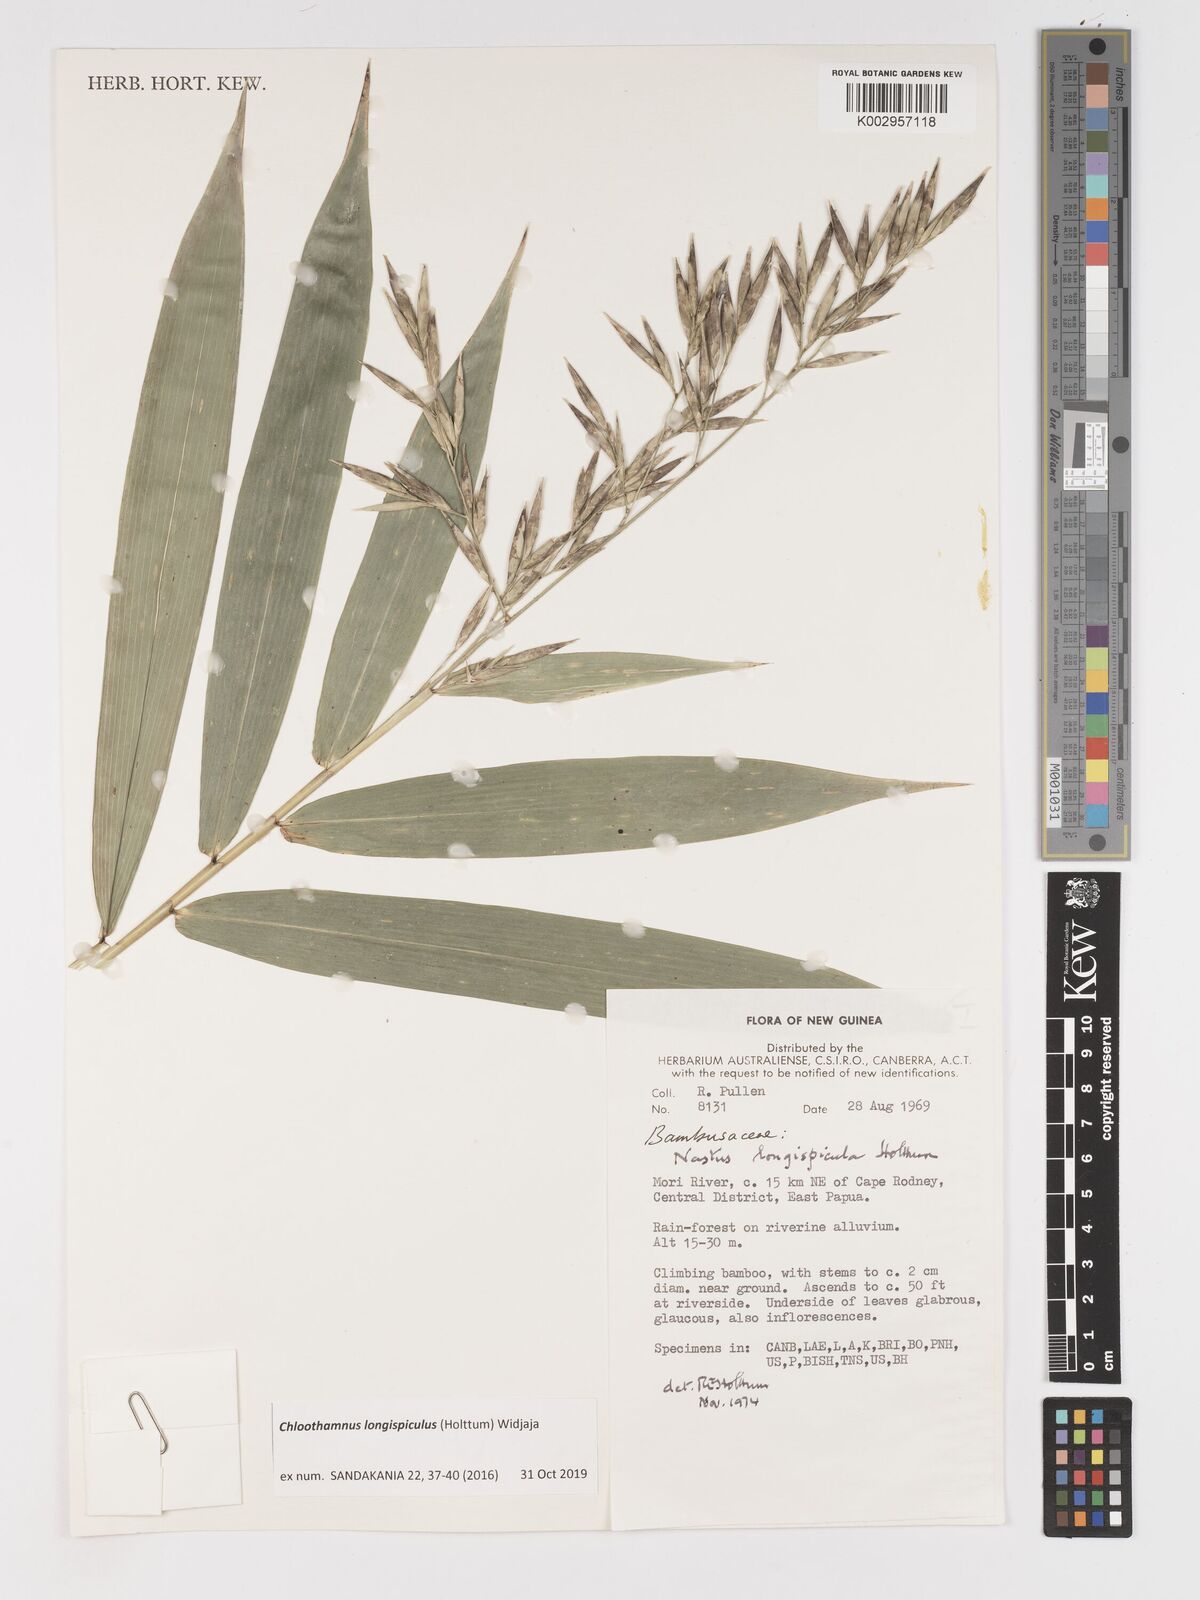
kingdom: Plantae
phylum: Tracheophyta
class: Liliopsida
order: Poales
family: Poaceae
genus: Chloothamnus
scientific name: Chloothamnus longispiculus
